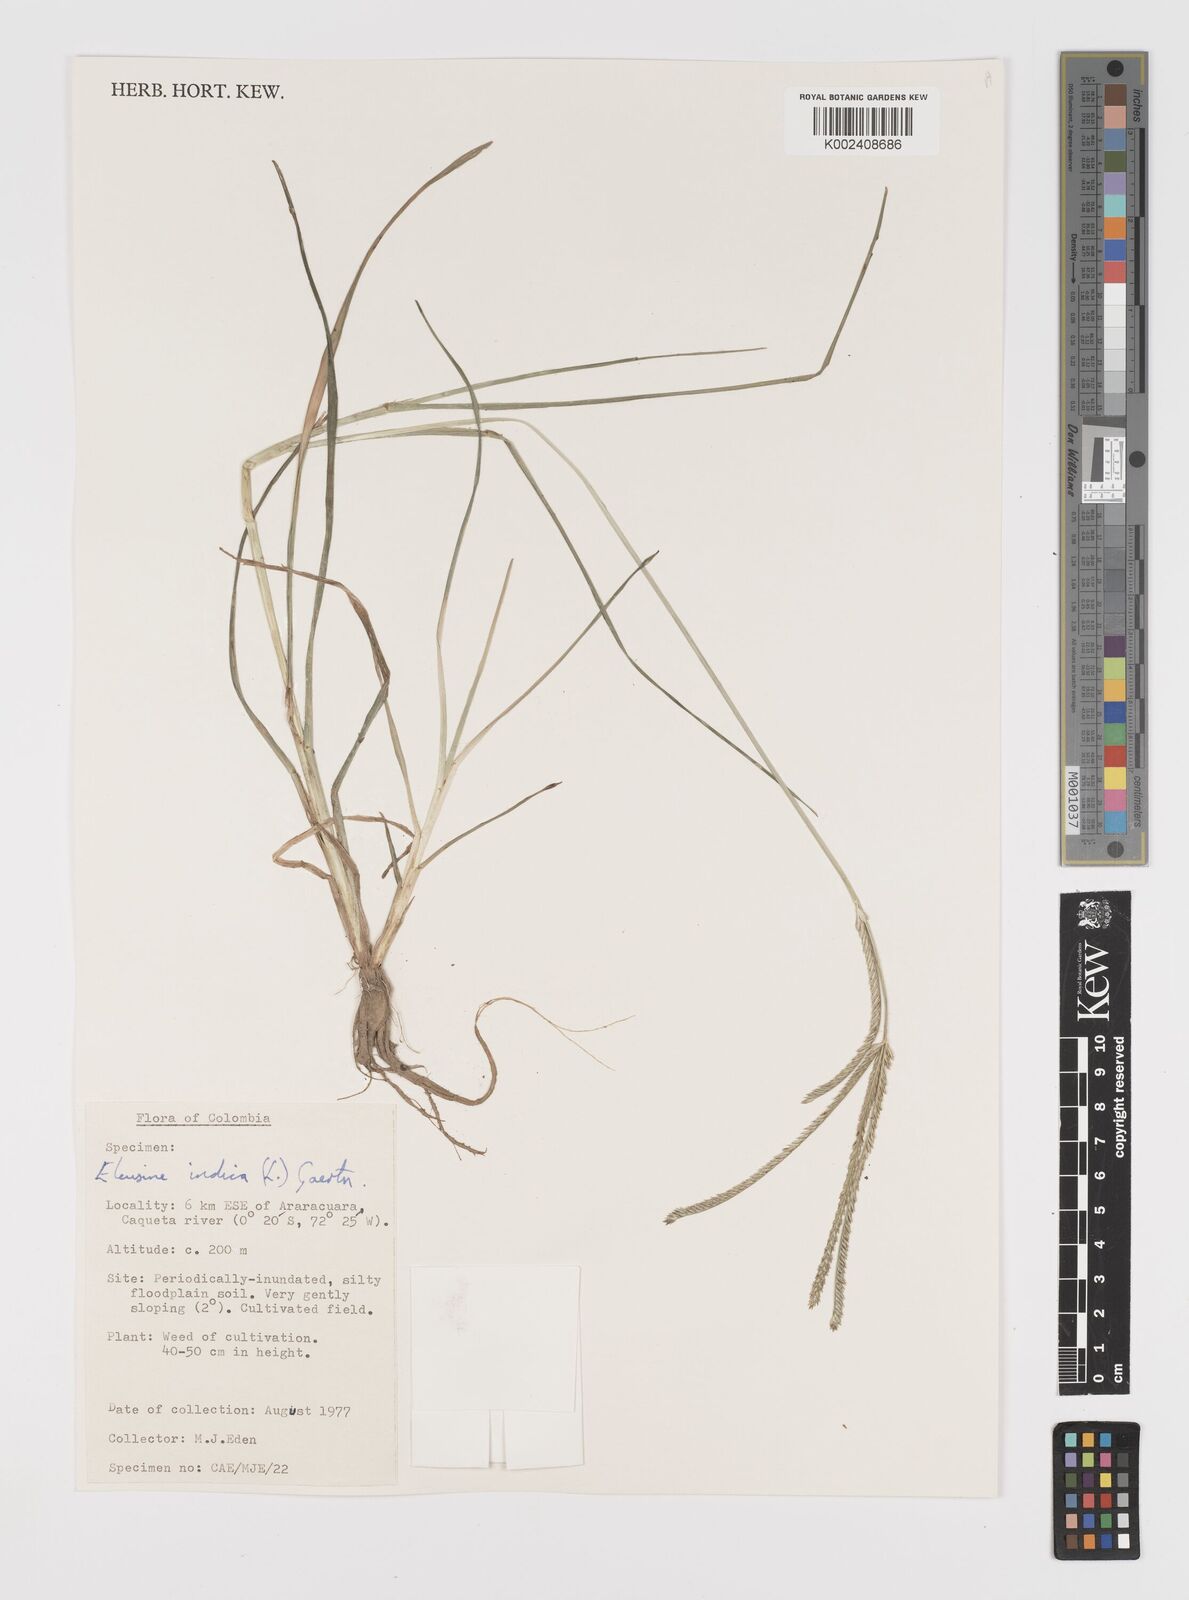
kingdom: Plantae
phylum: Tracheophyta
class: Liliopsida
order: Poales
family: Poaceae
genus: Eleusine
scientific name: Eleusine indica
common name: Yard-grass
